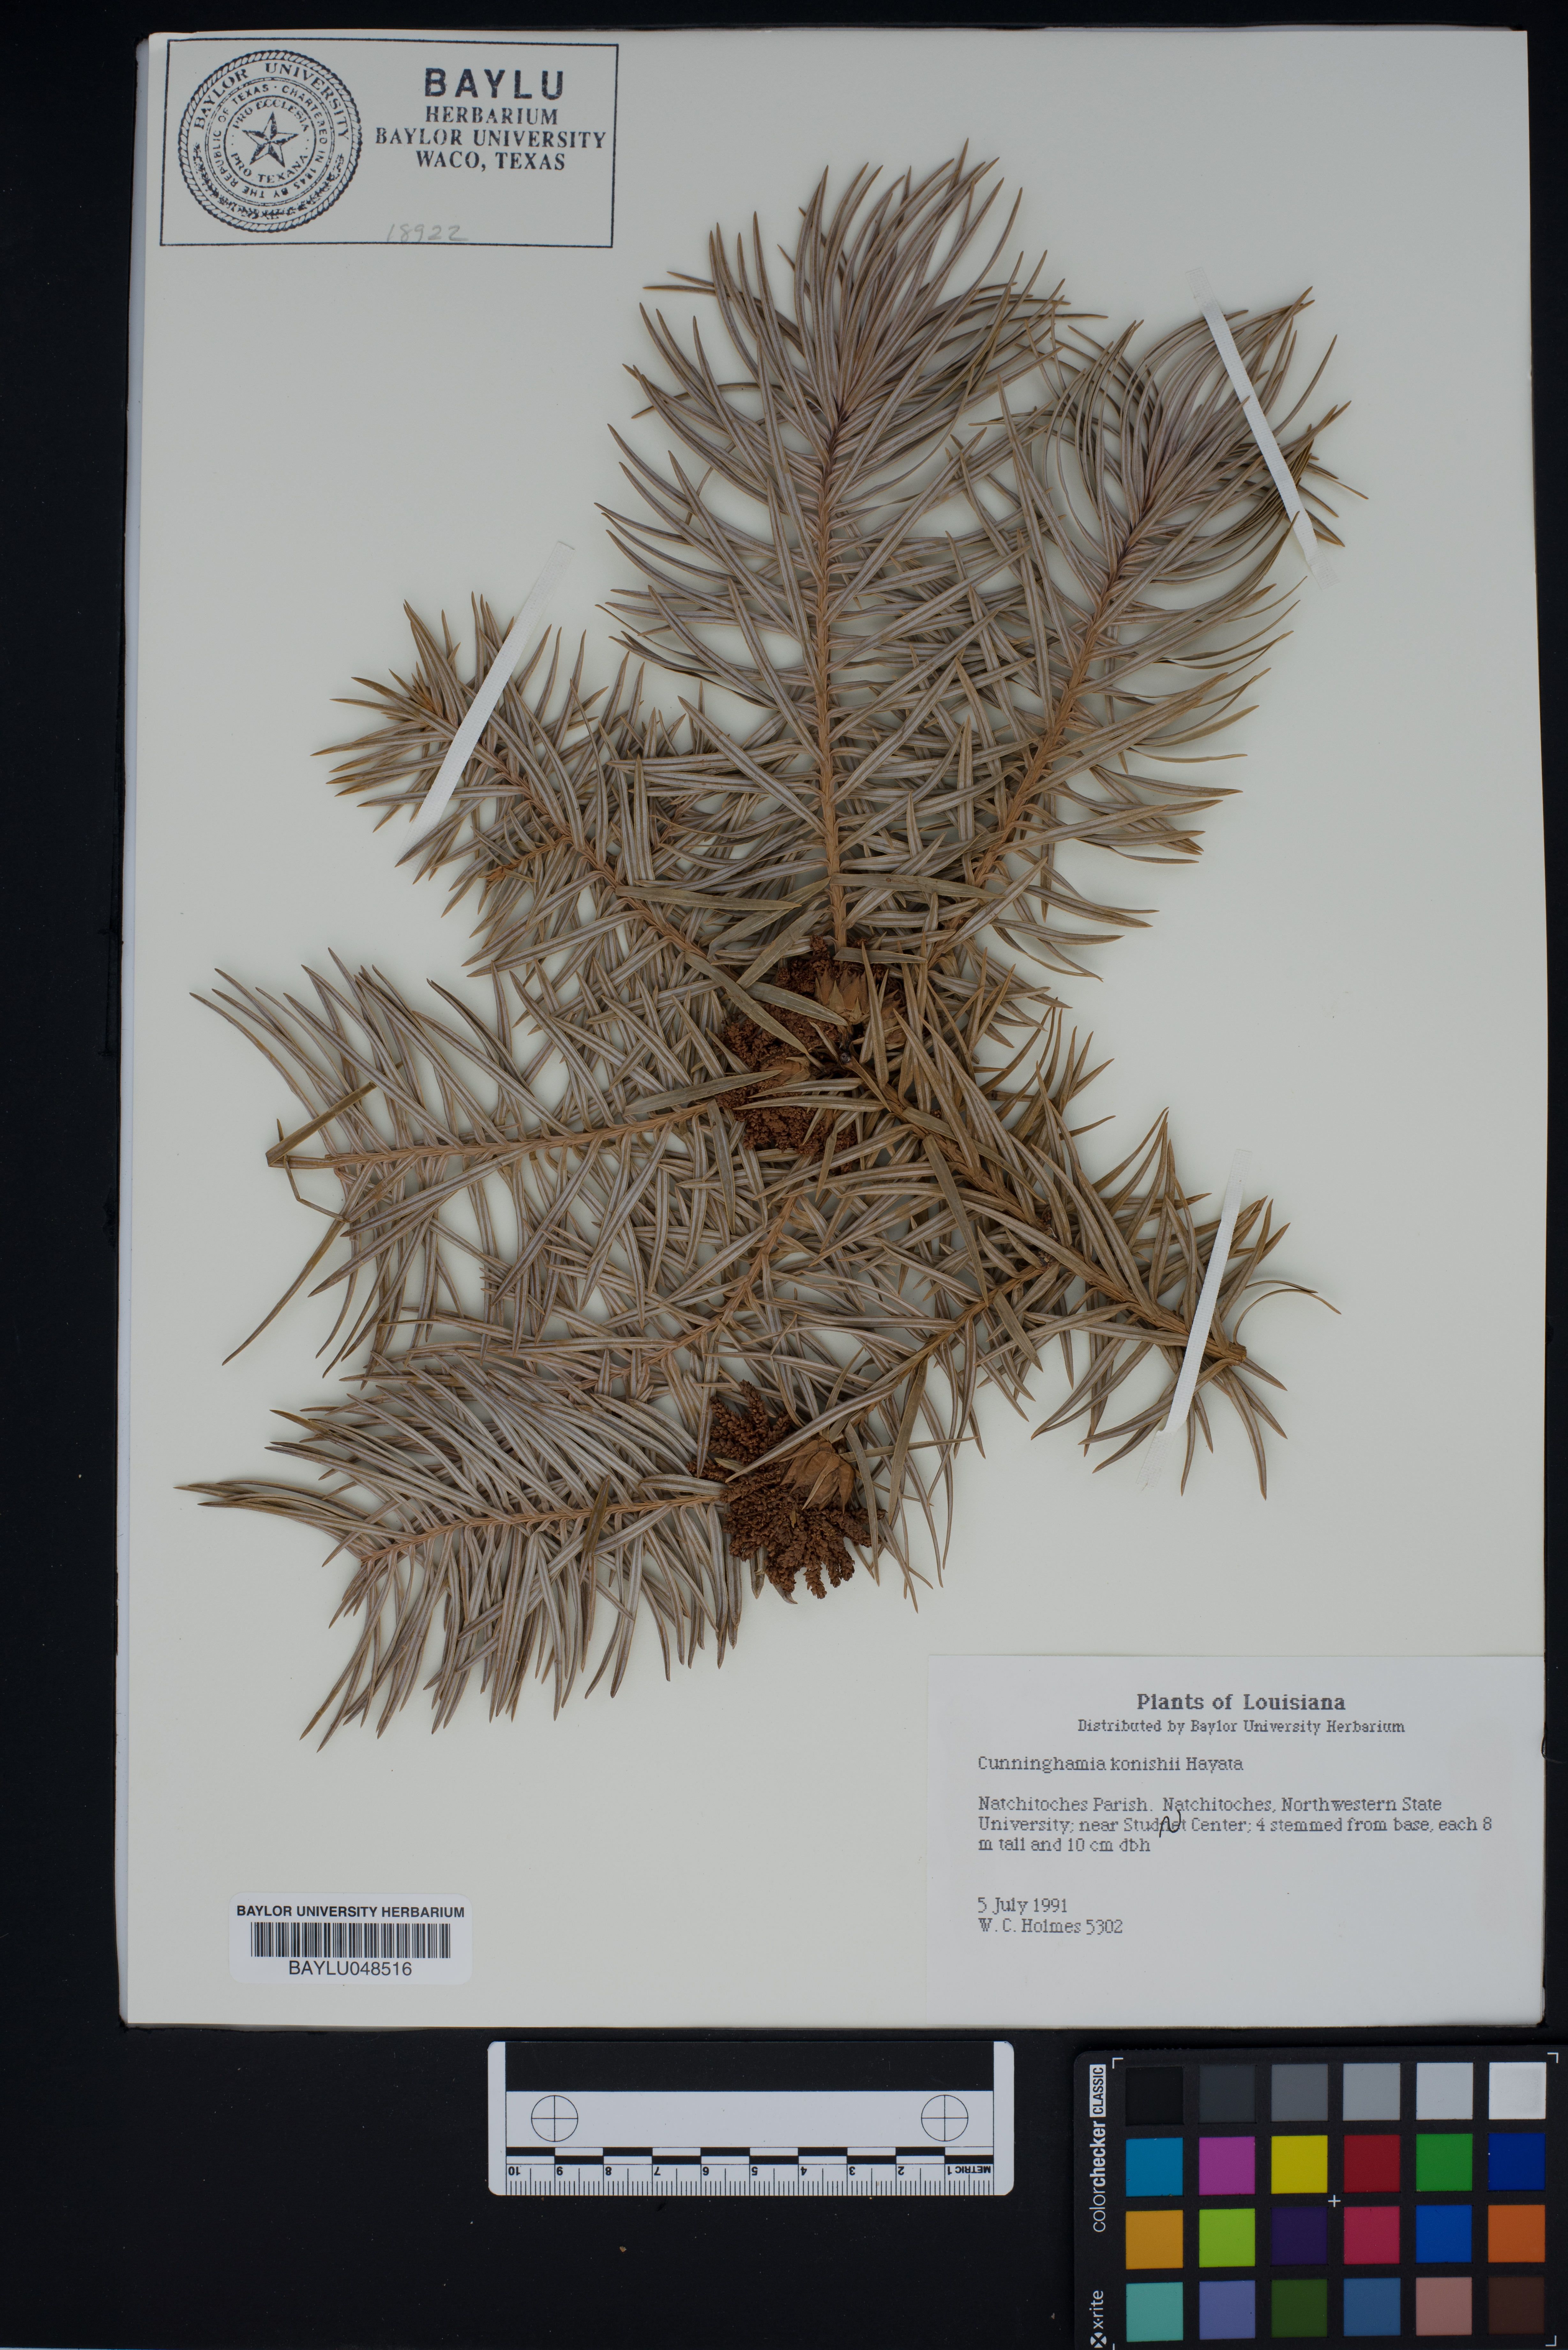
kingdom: Plantae
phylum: Tracheophyta
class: Pinopsida
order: Pinales
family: Cupressaceae
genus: Cunninghamia
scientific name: Cunninghamia konishii
